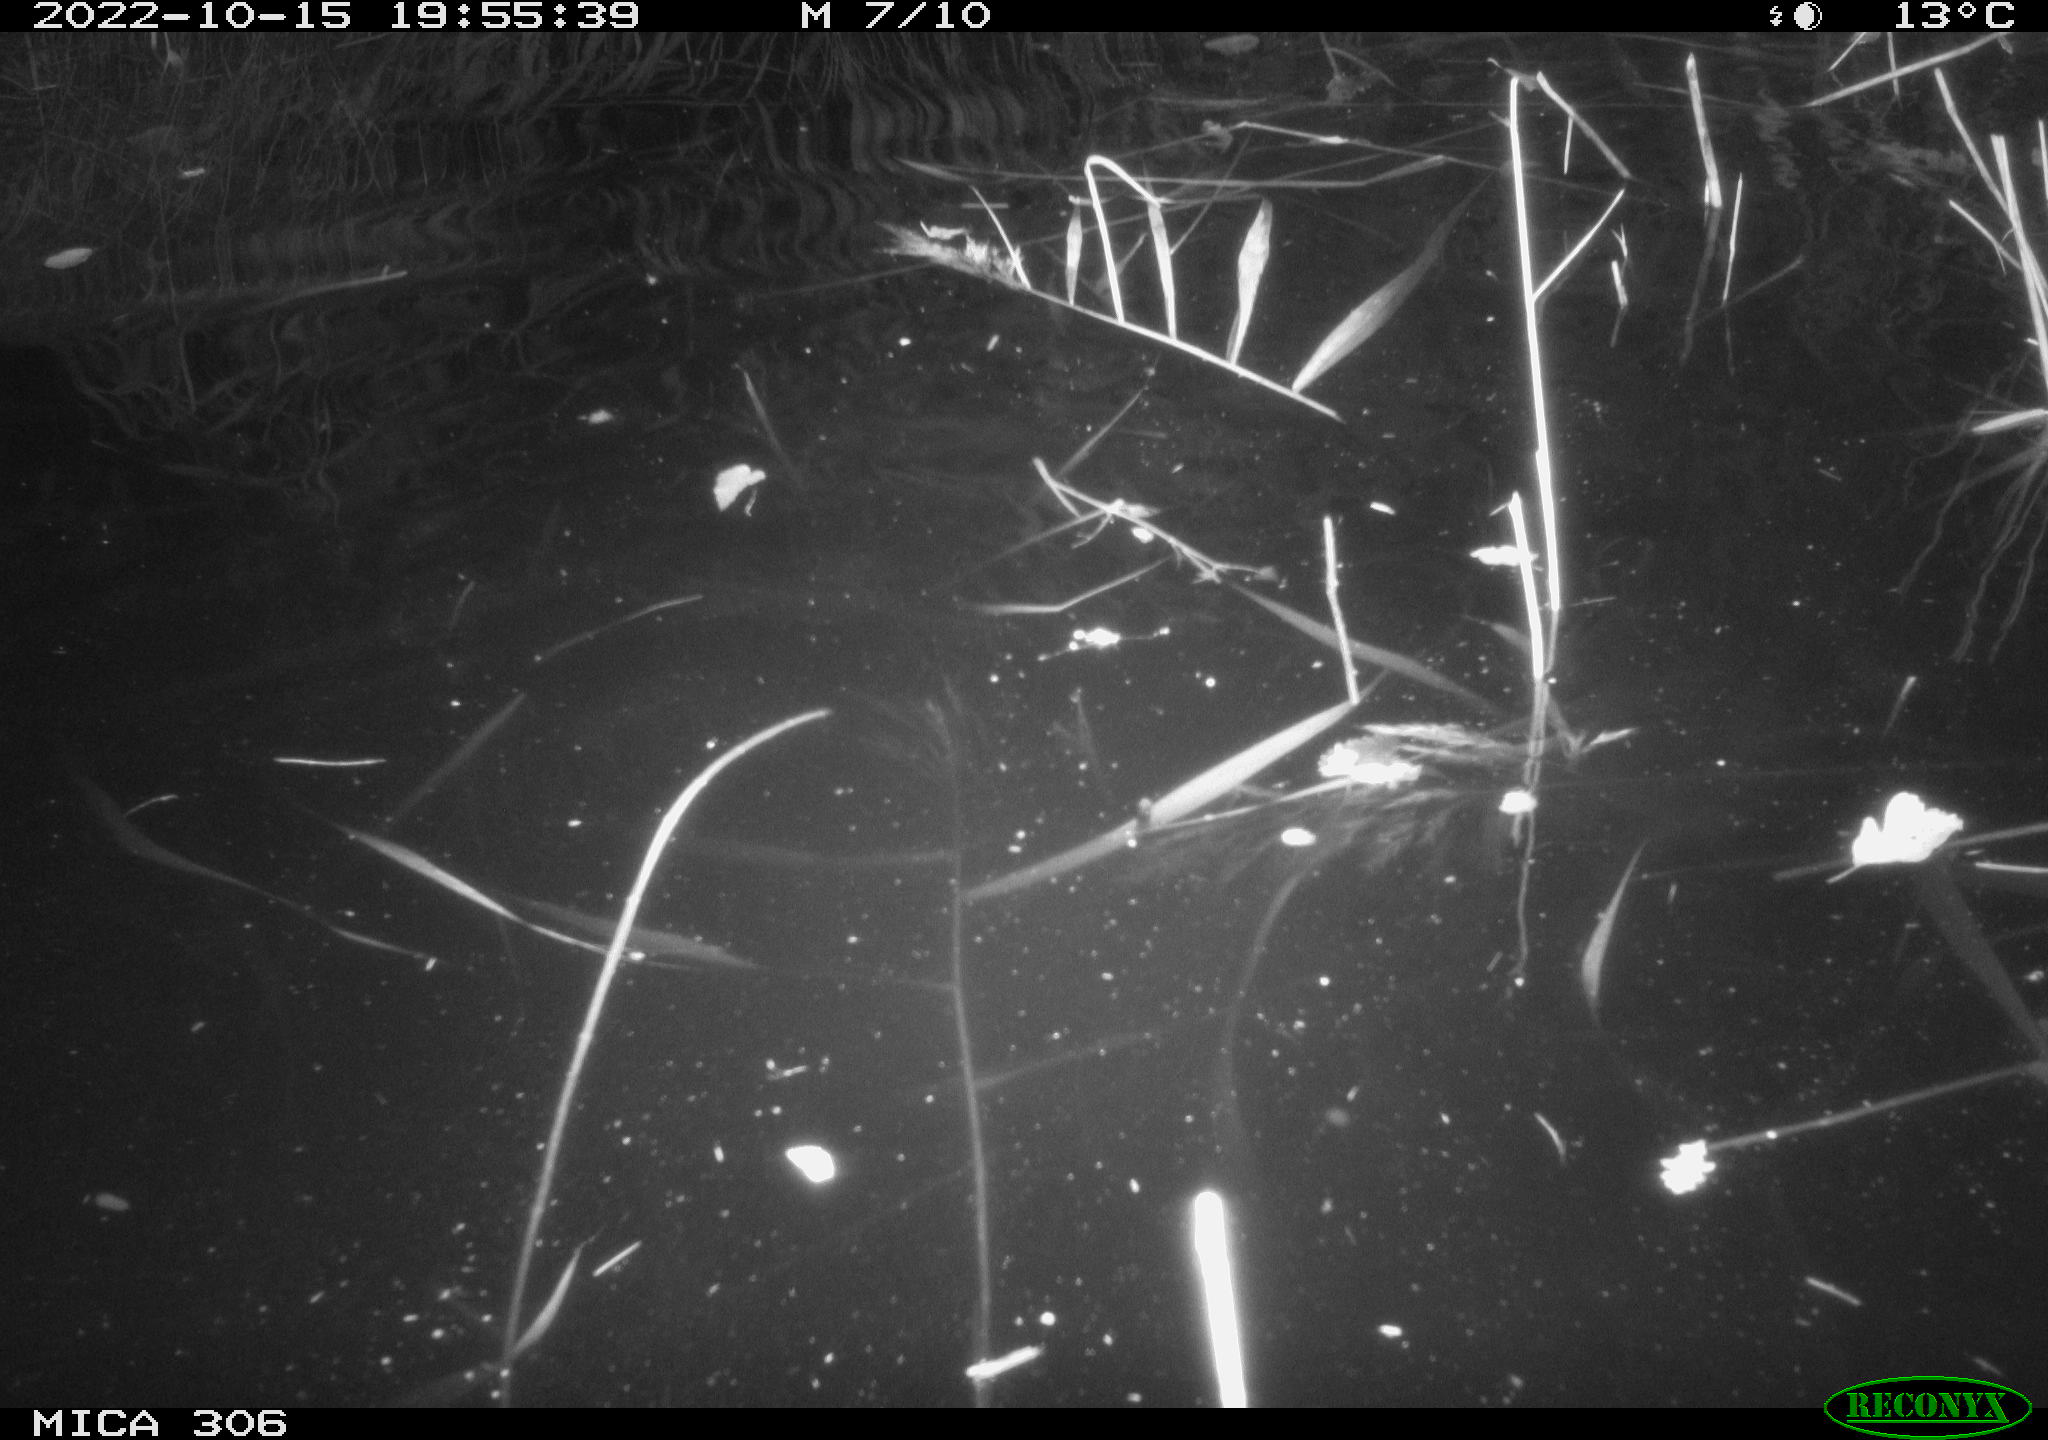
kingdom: Animalia
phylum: Chordata
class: Mammalia
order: Rodentia
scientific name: Rodentia
